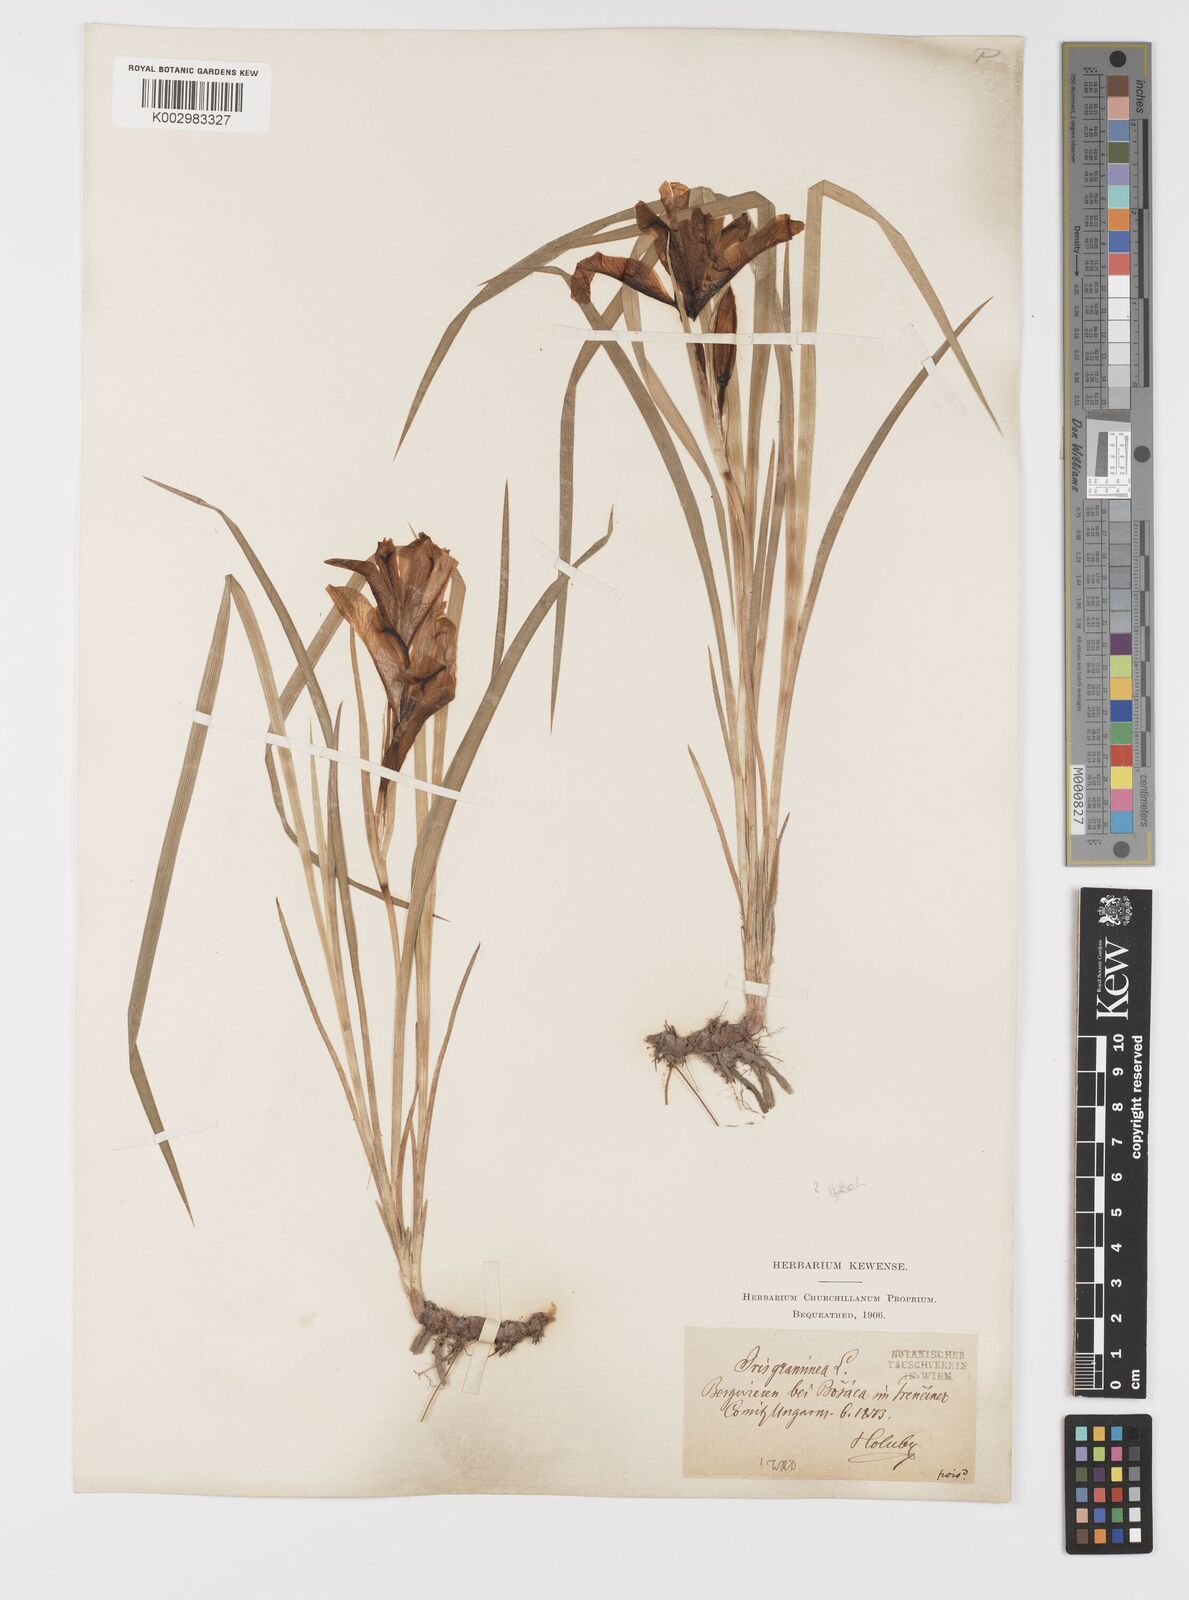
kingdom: Plantae
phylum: Tracheophyta
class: Liliopsida
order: Asparagales
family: Iridaceae
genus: Iris
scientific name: Iris graminea
